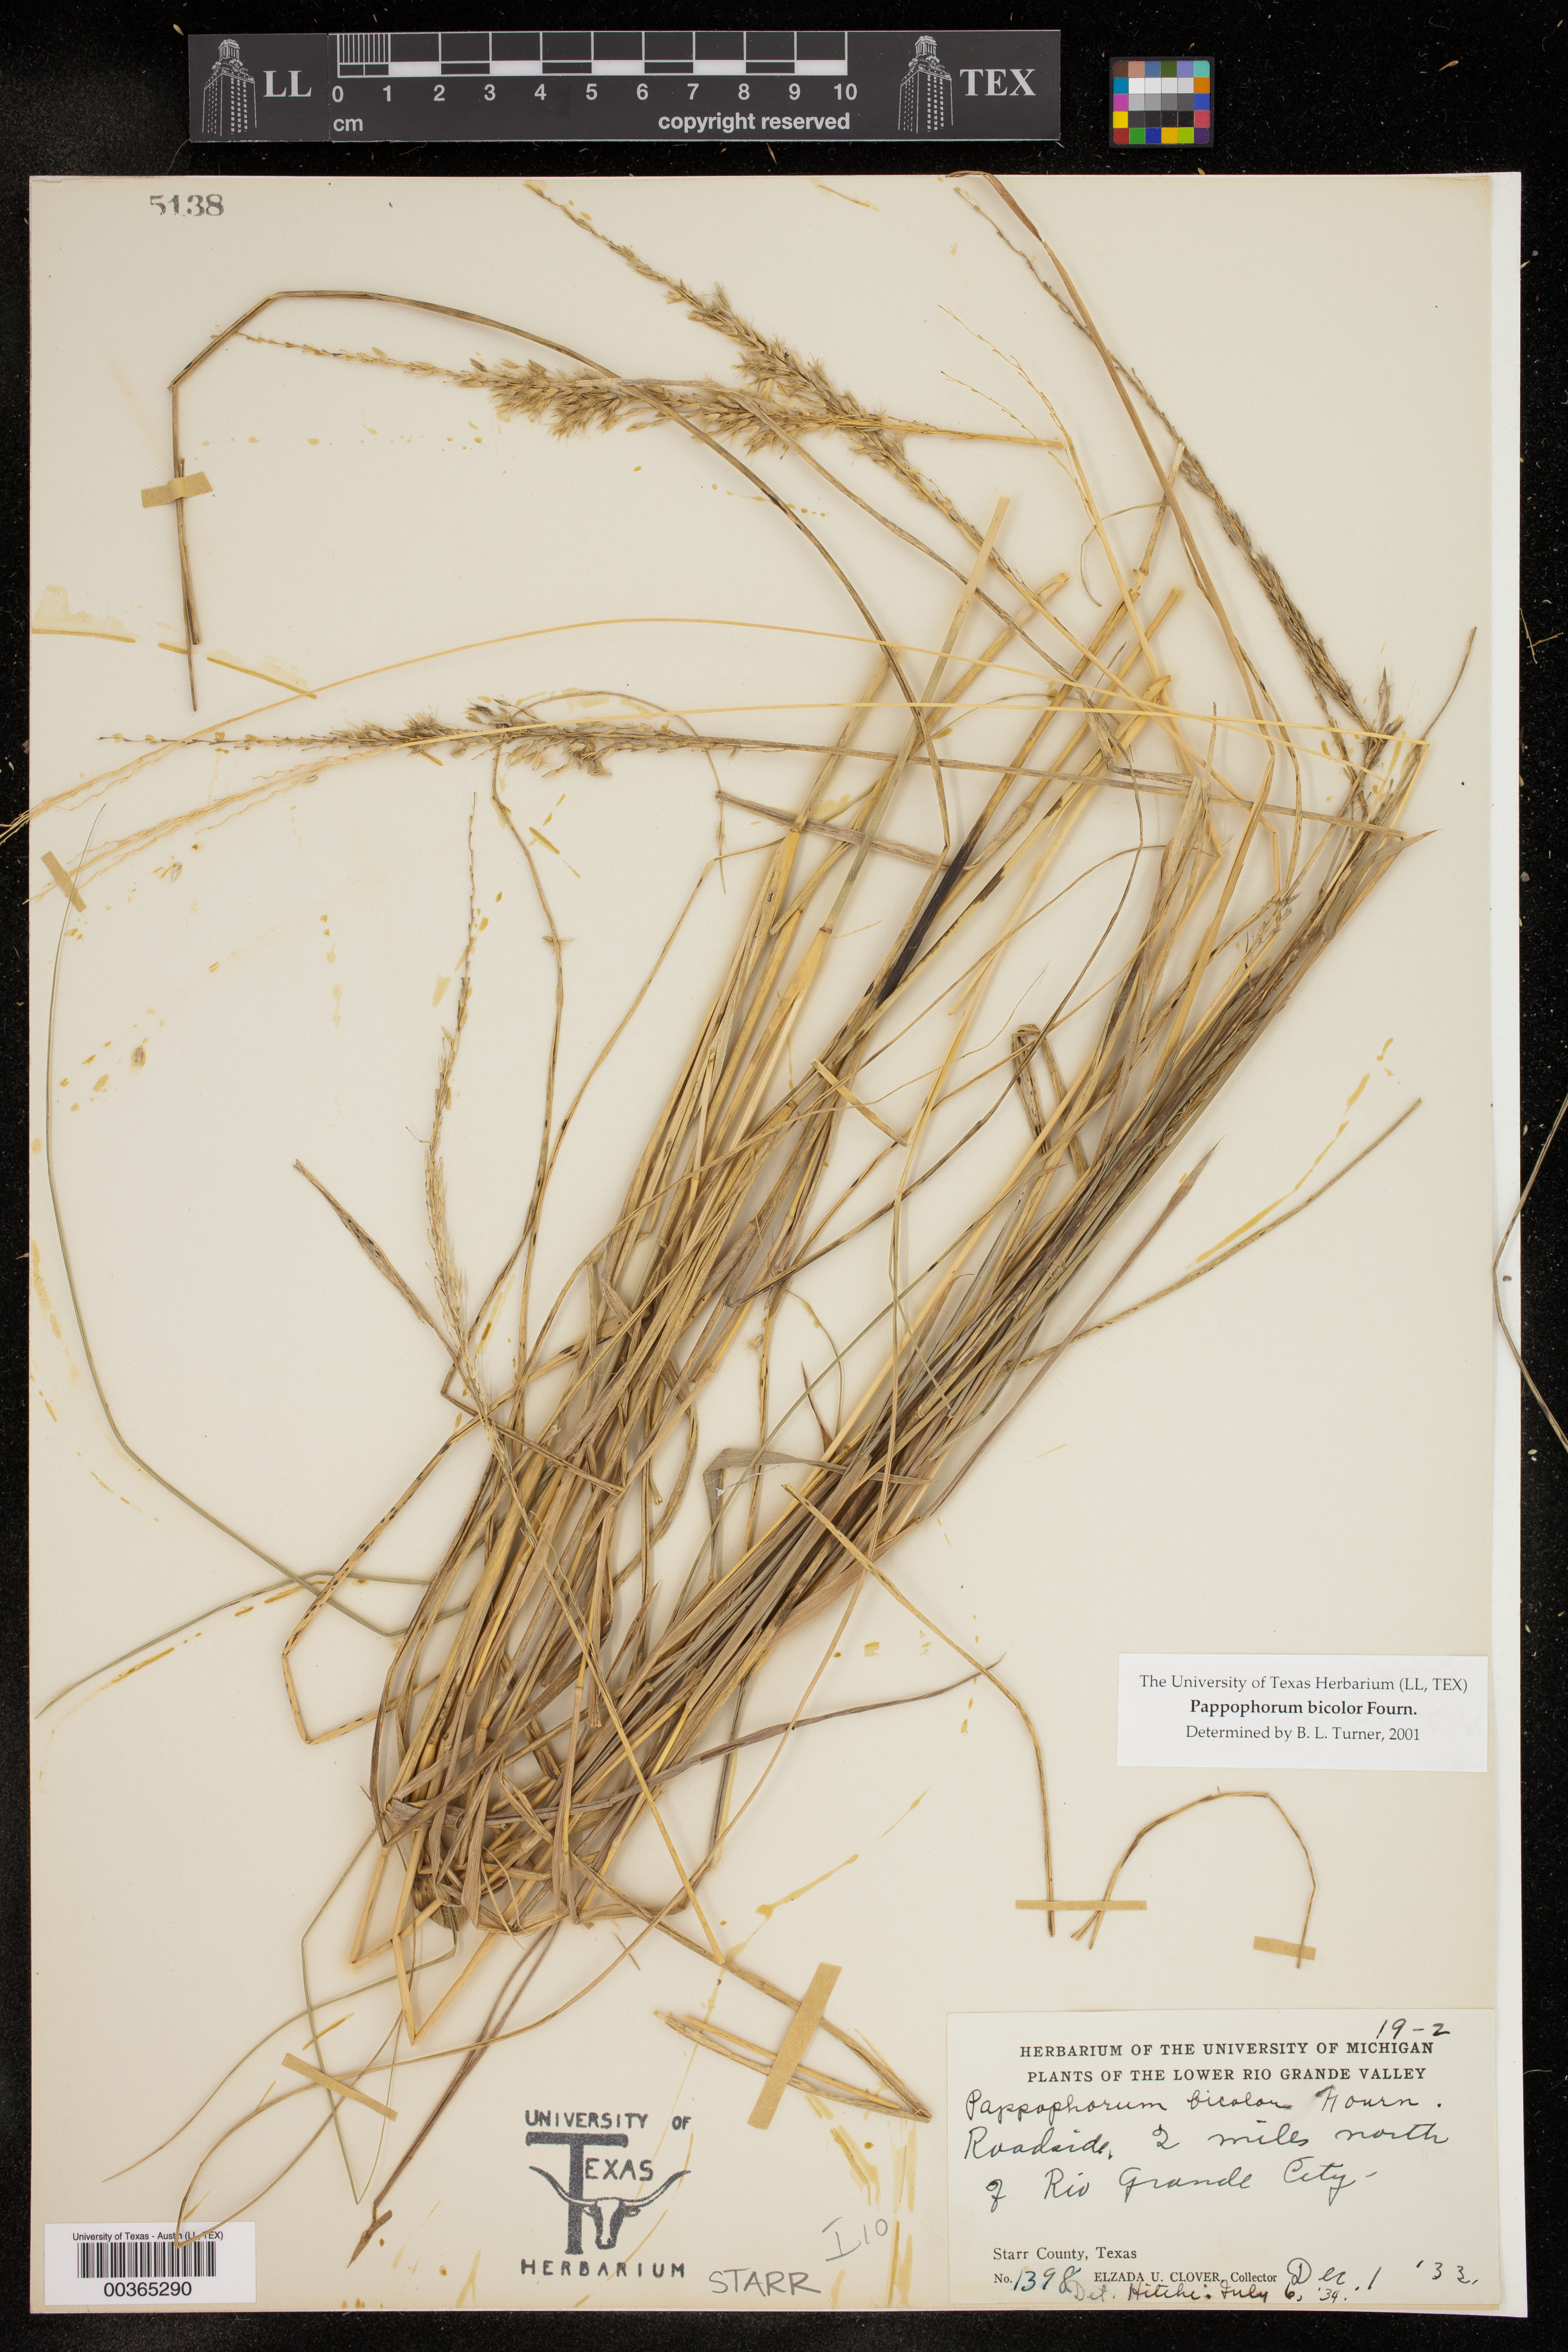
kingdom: Plantae
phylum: Tracheophyta
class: Liliopsida
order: Poales
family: Poaceae
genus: Pappophorum
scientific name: Pappophorum bicolor
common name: Pink pappus grass
